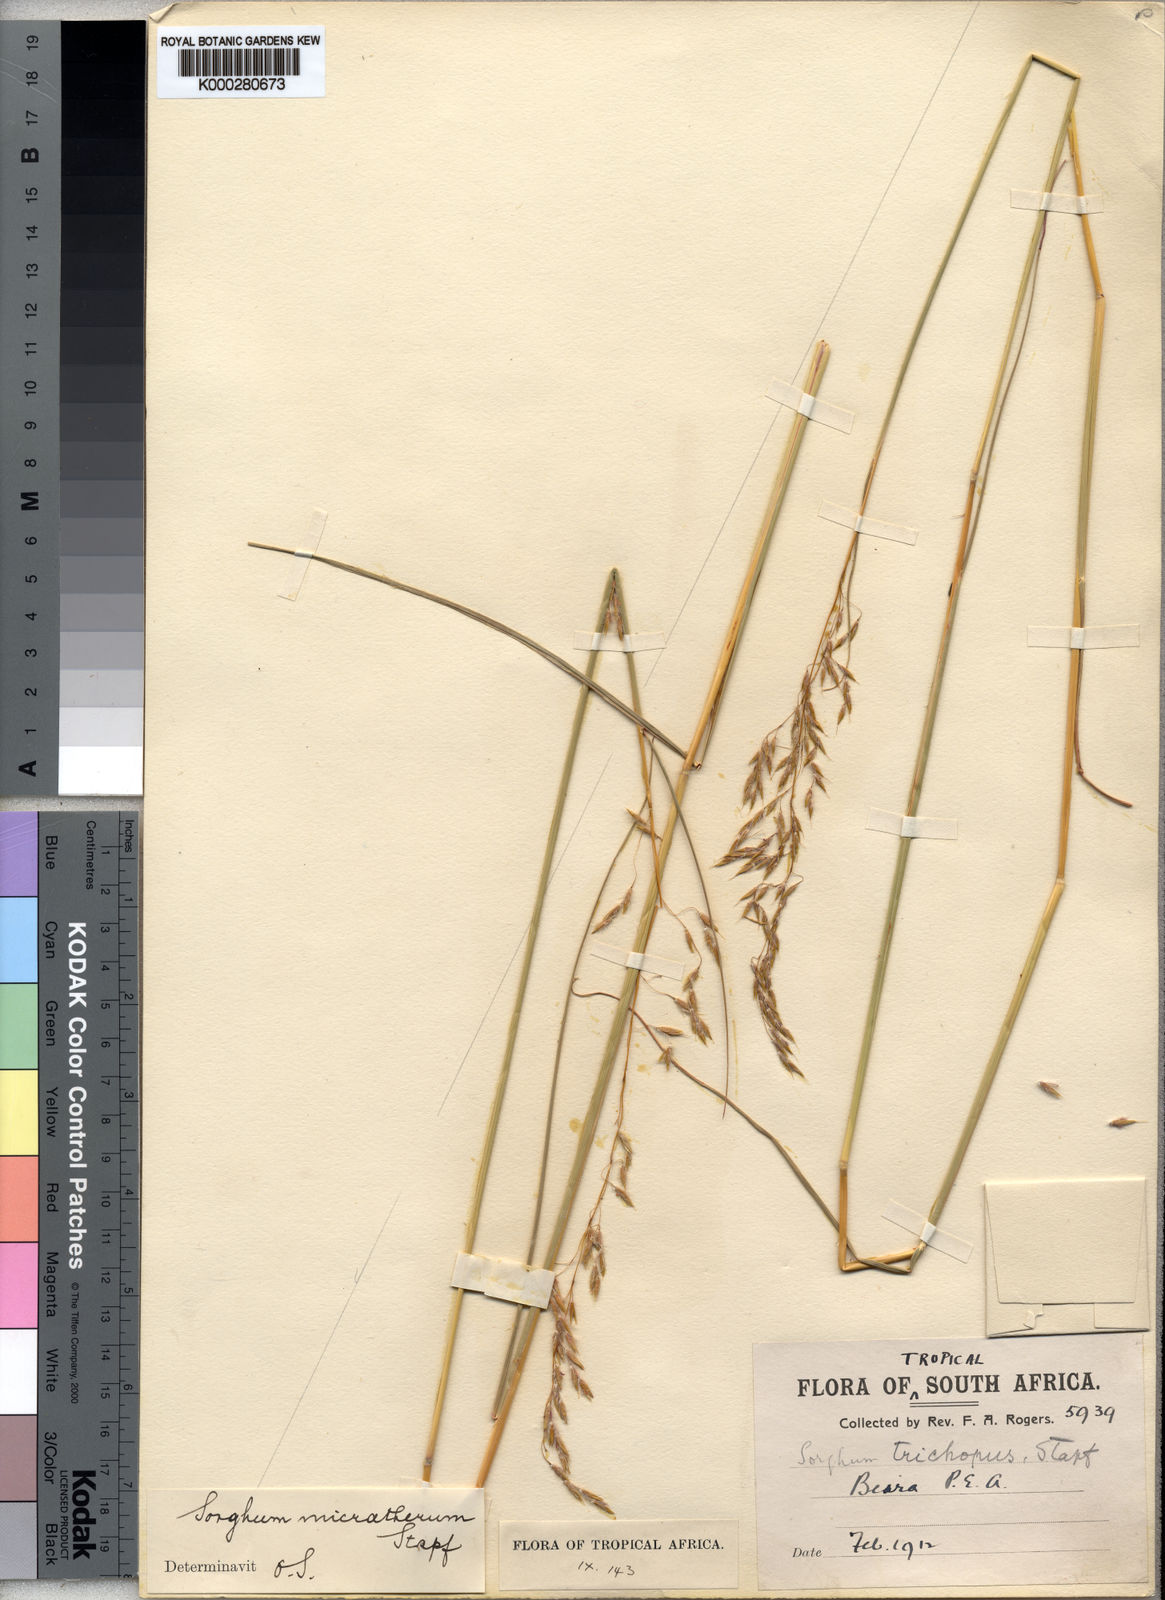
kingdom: Plantae
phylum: Tracheophyta
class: Liliopsida
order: Poales
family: Poaceae
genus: Sorghastrum
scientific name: Sorghastrum nudipes
